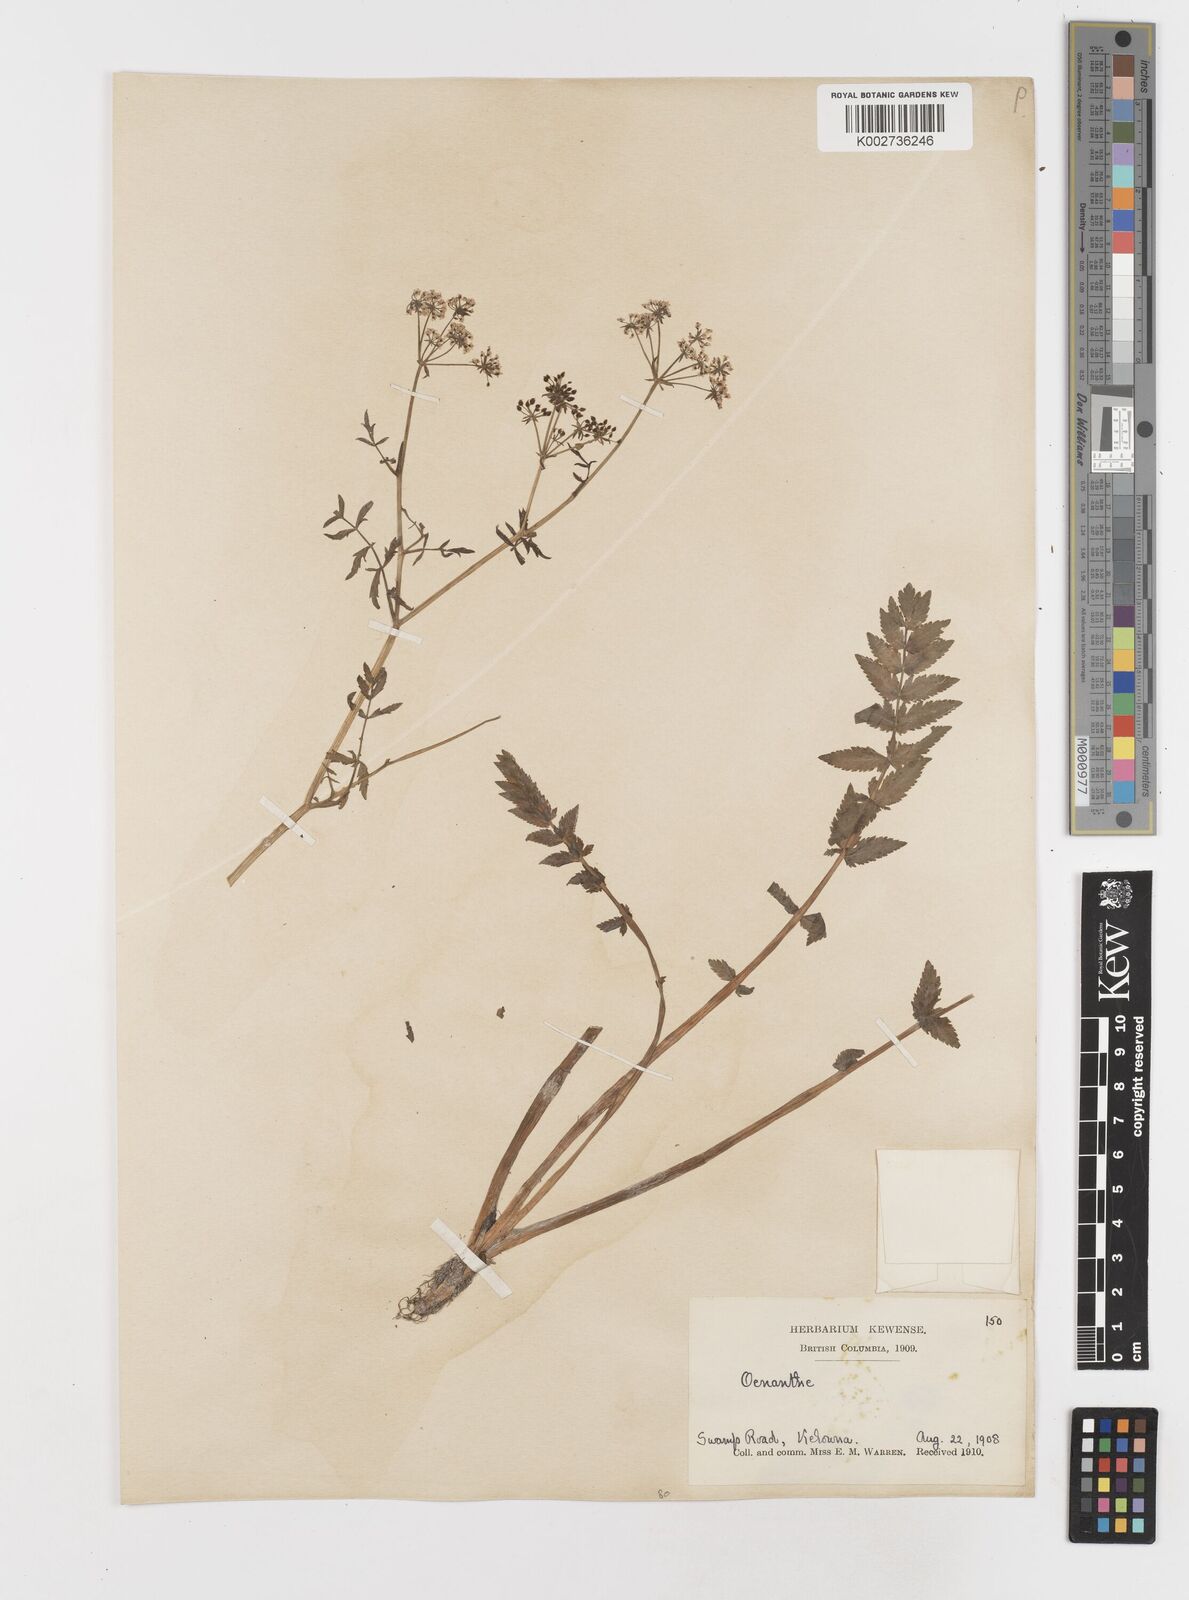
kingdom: Plantae
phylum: Tracheophyta
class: Magnoliopsida
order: Apiales
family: Apiaceae
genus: Berula
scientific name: Berula erecta
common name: Lesser water-parsnip
